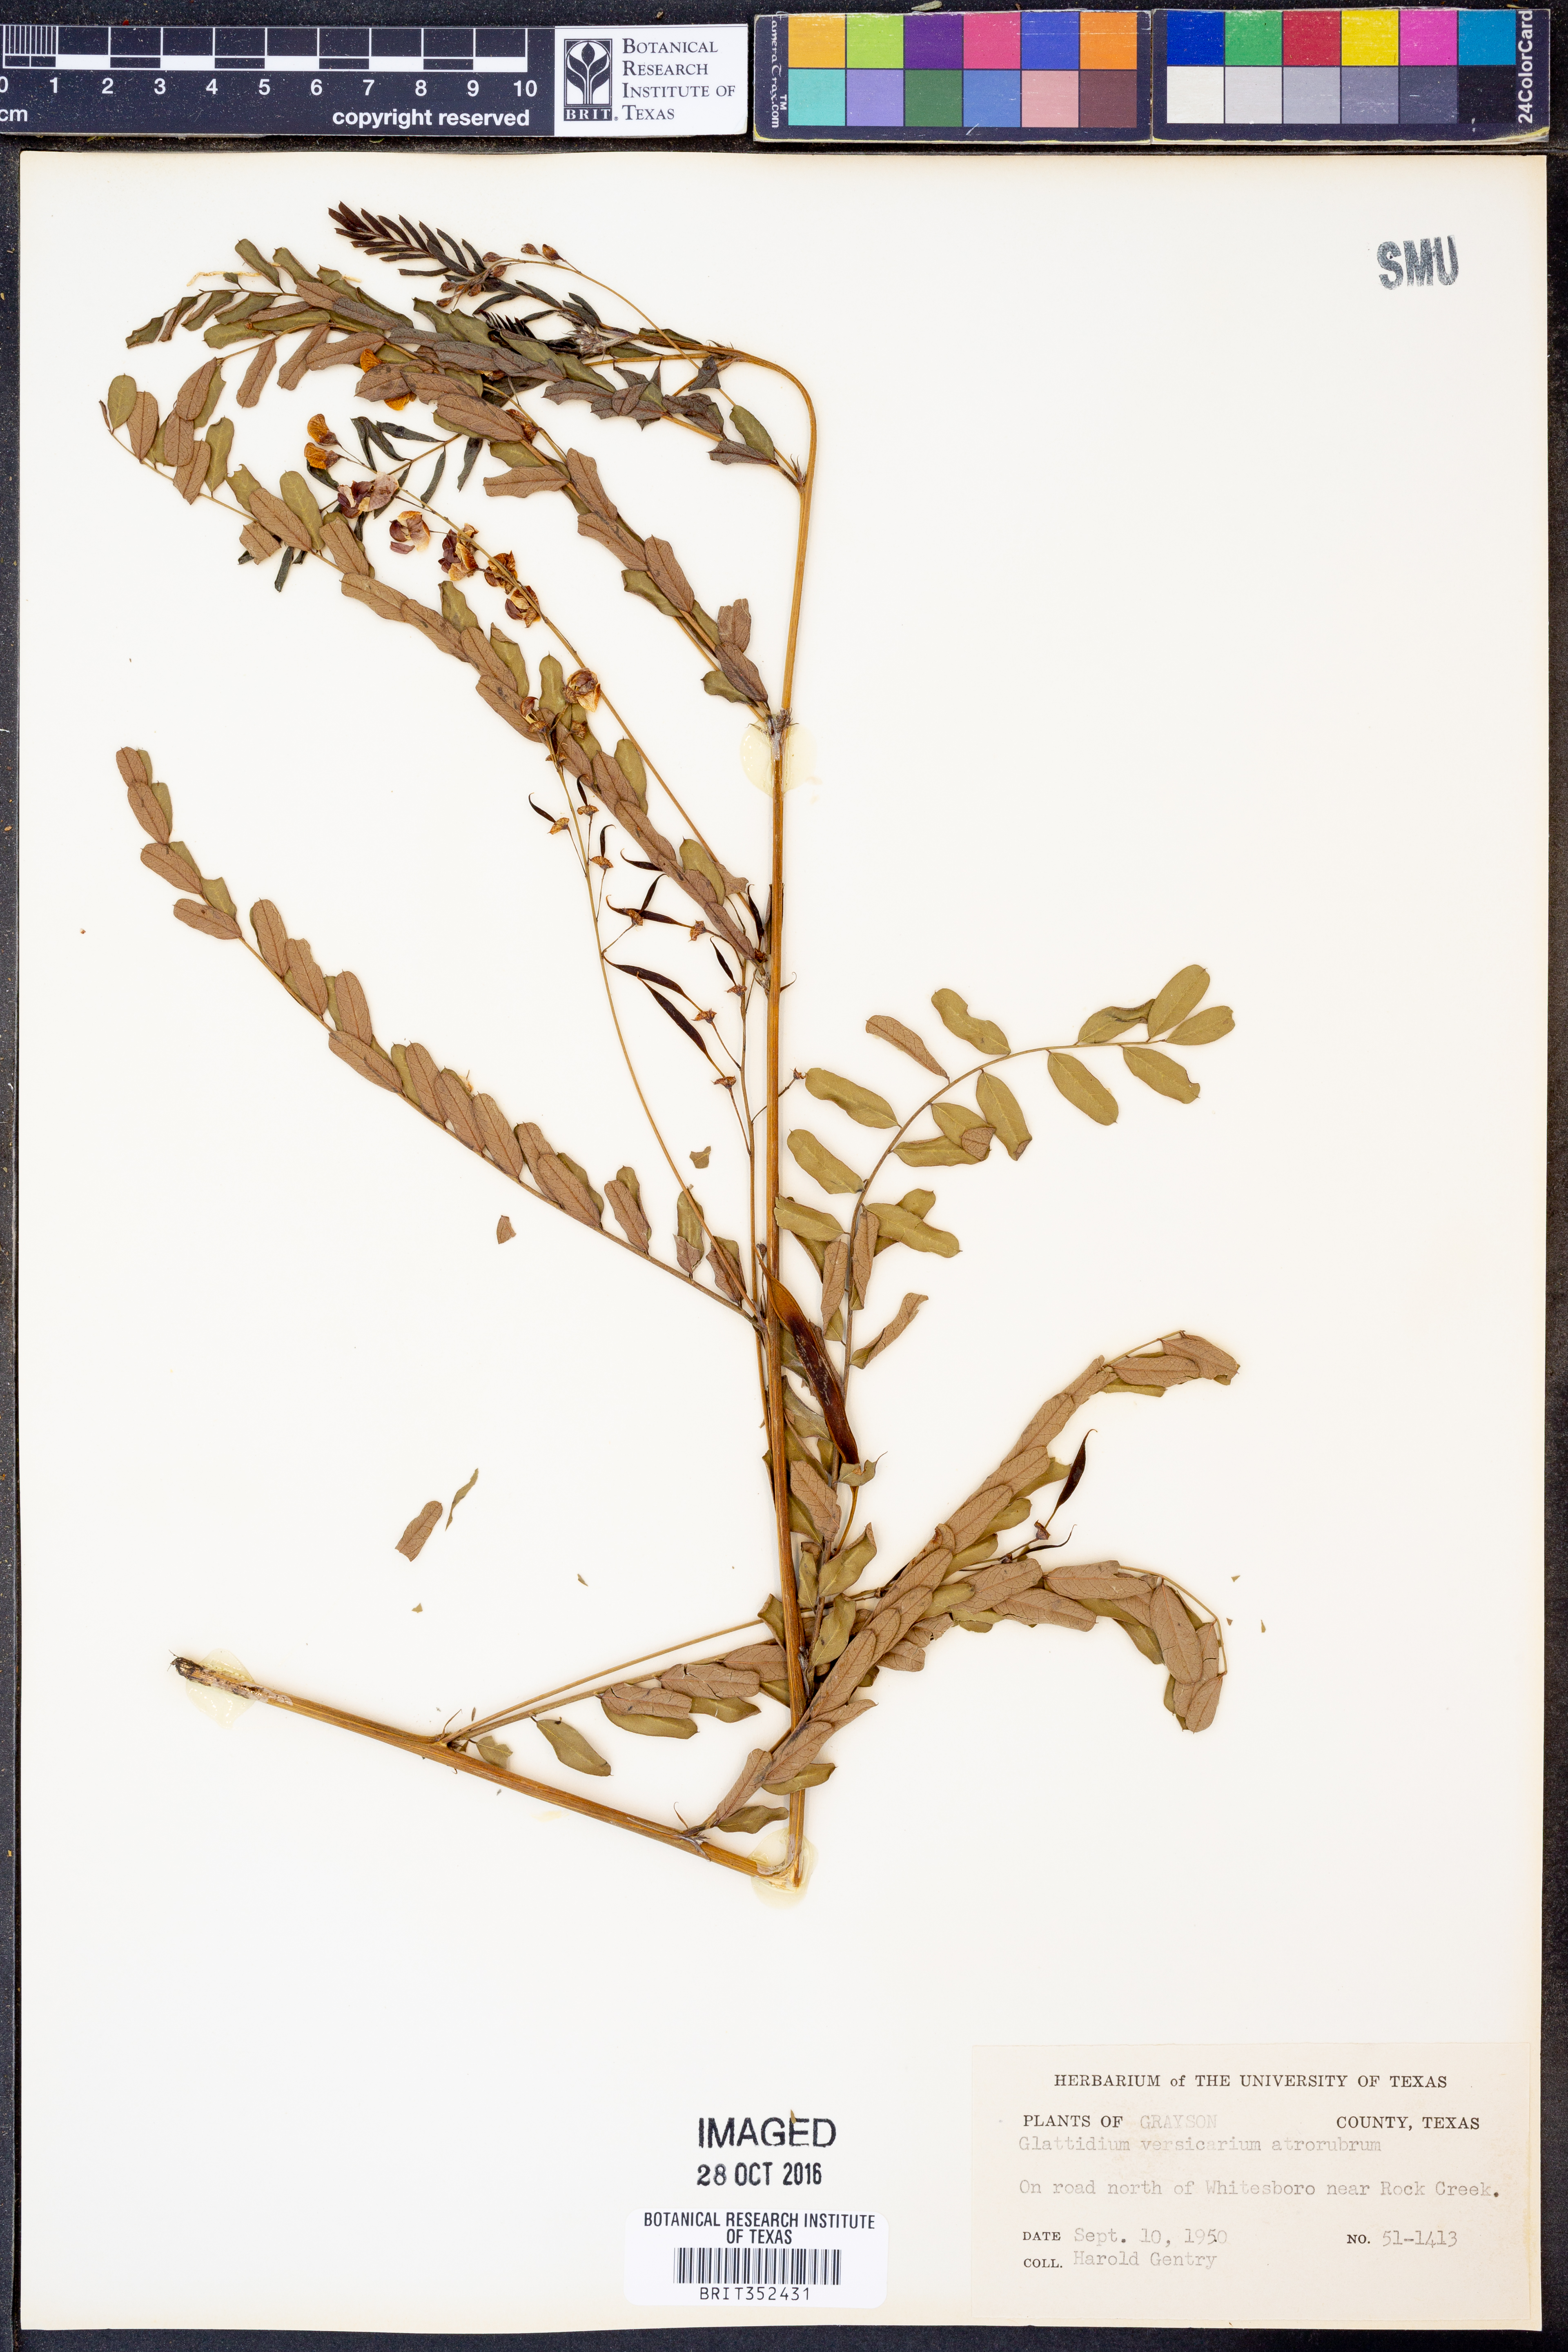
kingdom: Plantae
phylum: Tracheophyta
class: Magnoliopsida
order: Fabales
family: Fabaceae
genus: Sesbania
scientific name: Sesbania vesicaria
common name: Bagpod
